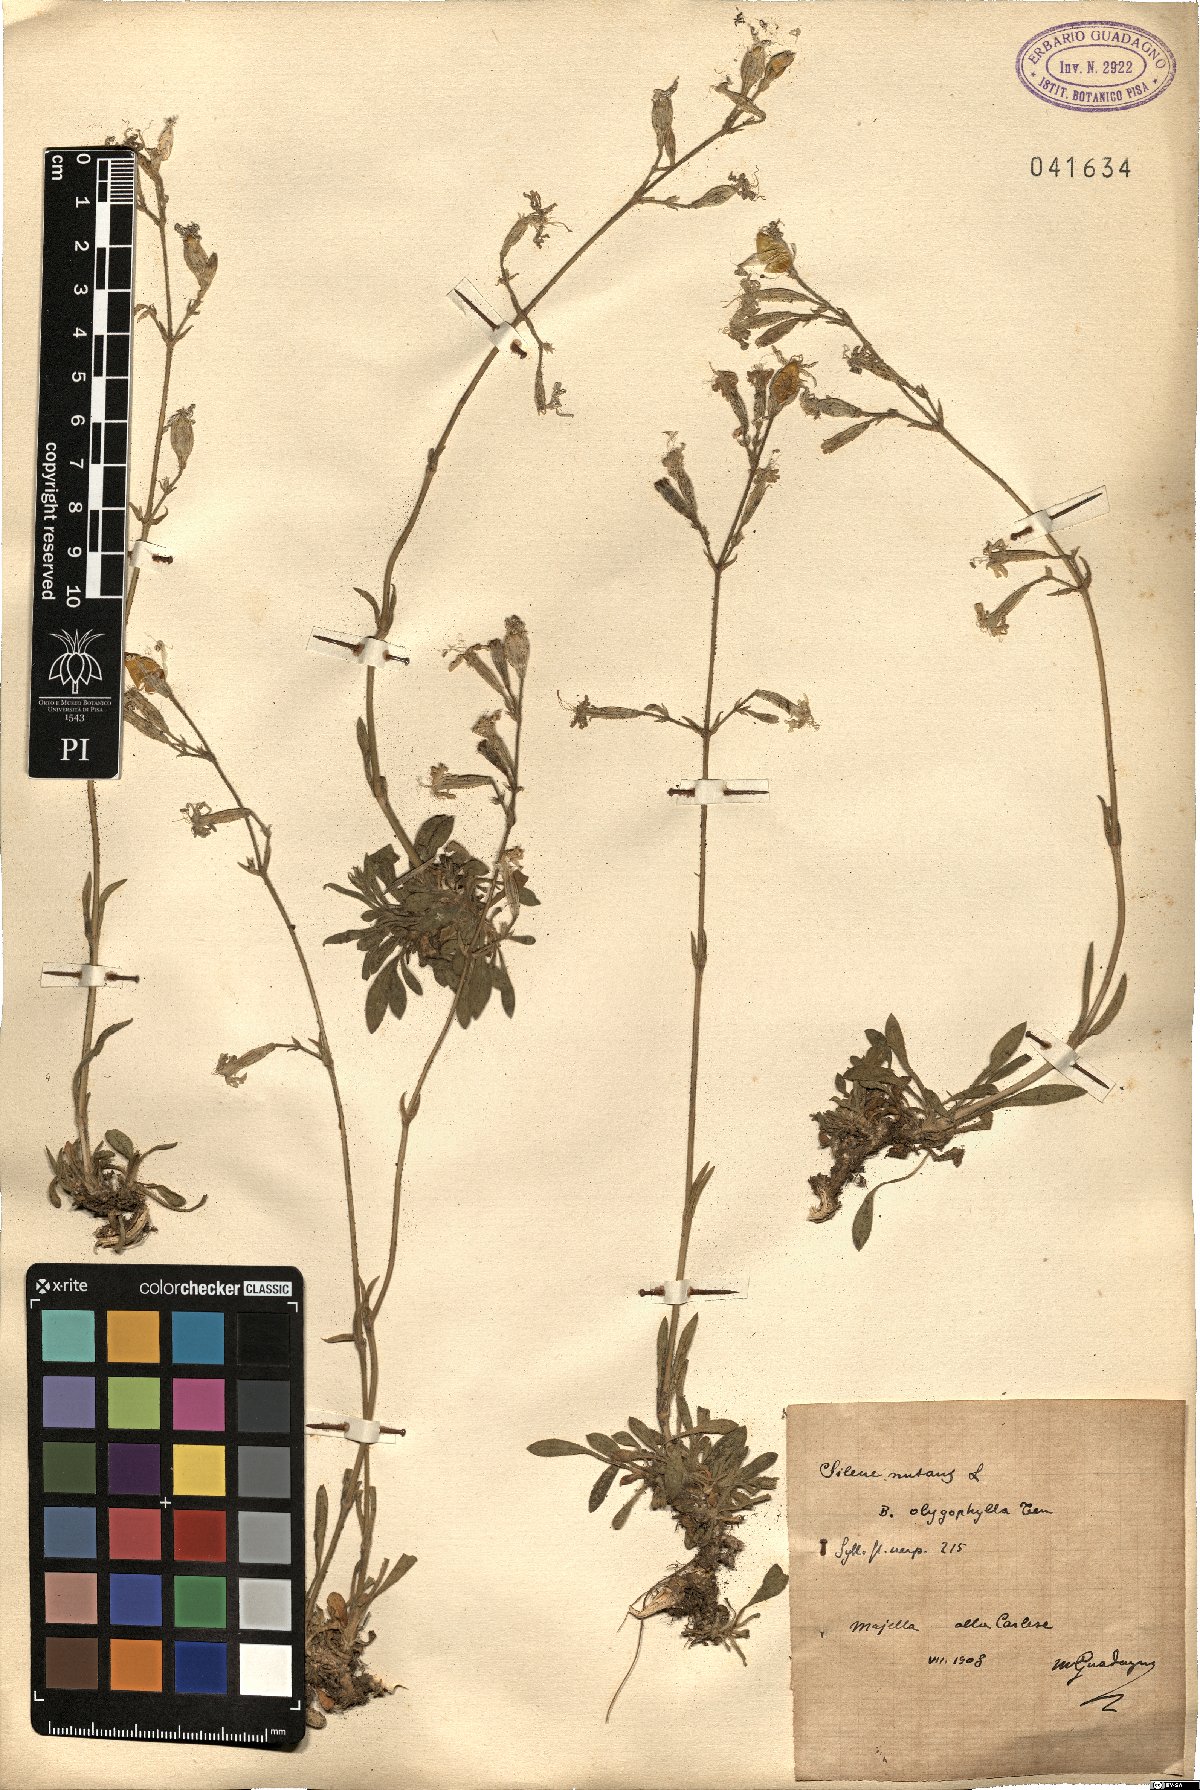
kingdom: Plantae
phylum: Tracheophyta
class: Magnoliopsida
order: Caryophyllales
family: Caryophyllaceae
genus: Silene
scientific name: Silene nutans
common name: Nottingham catchfly
